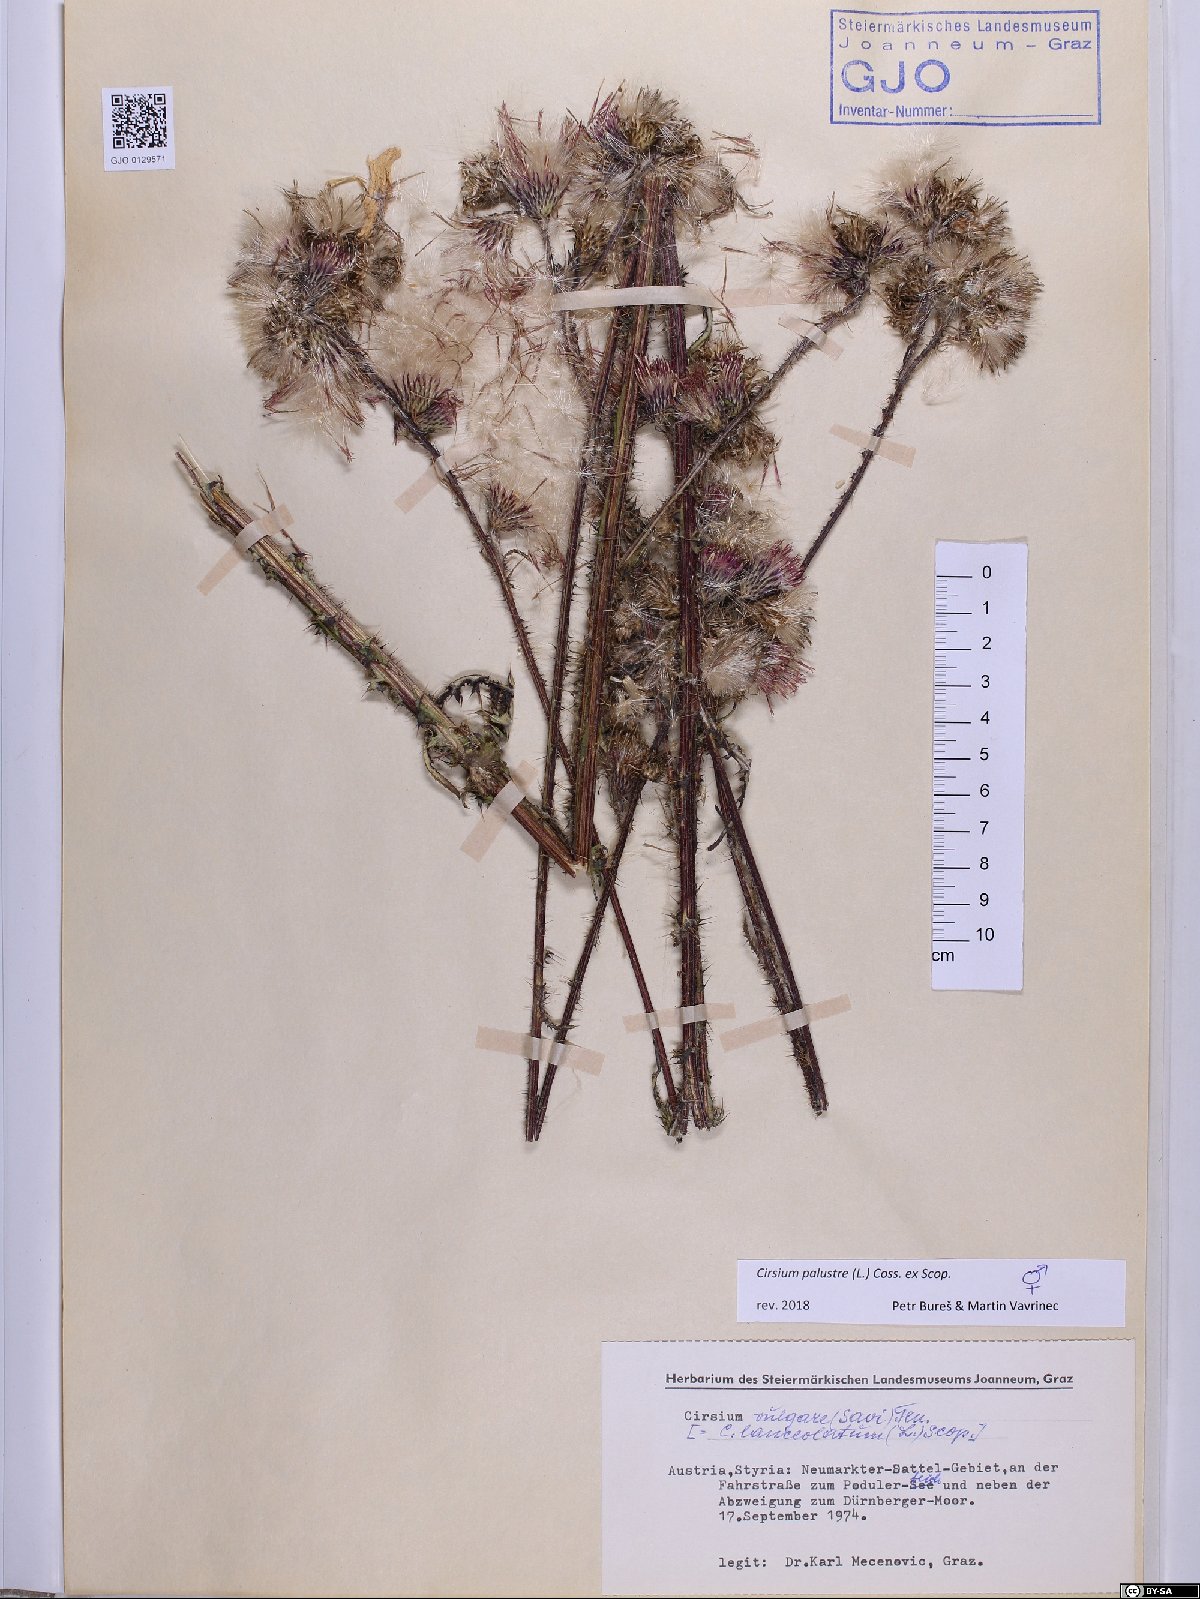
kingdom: Plantae
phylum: Tracheophyta
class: Magnoliopsida
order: Asterales
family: Asteraceae
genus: Cirsium
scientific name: Cirsium palustre
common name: Marsh thistle
